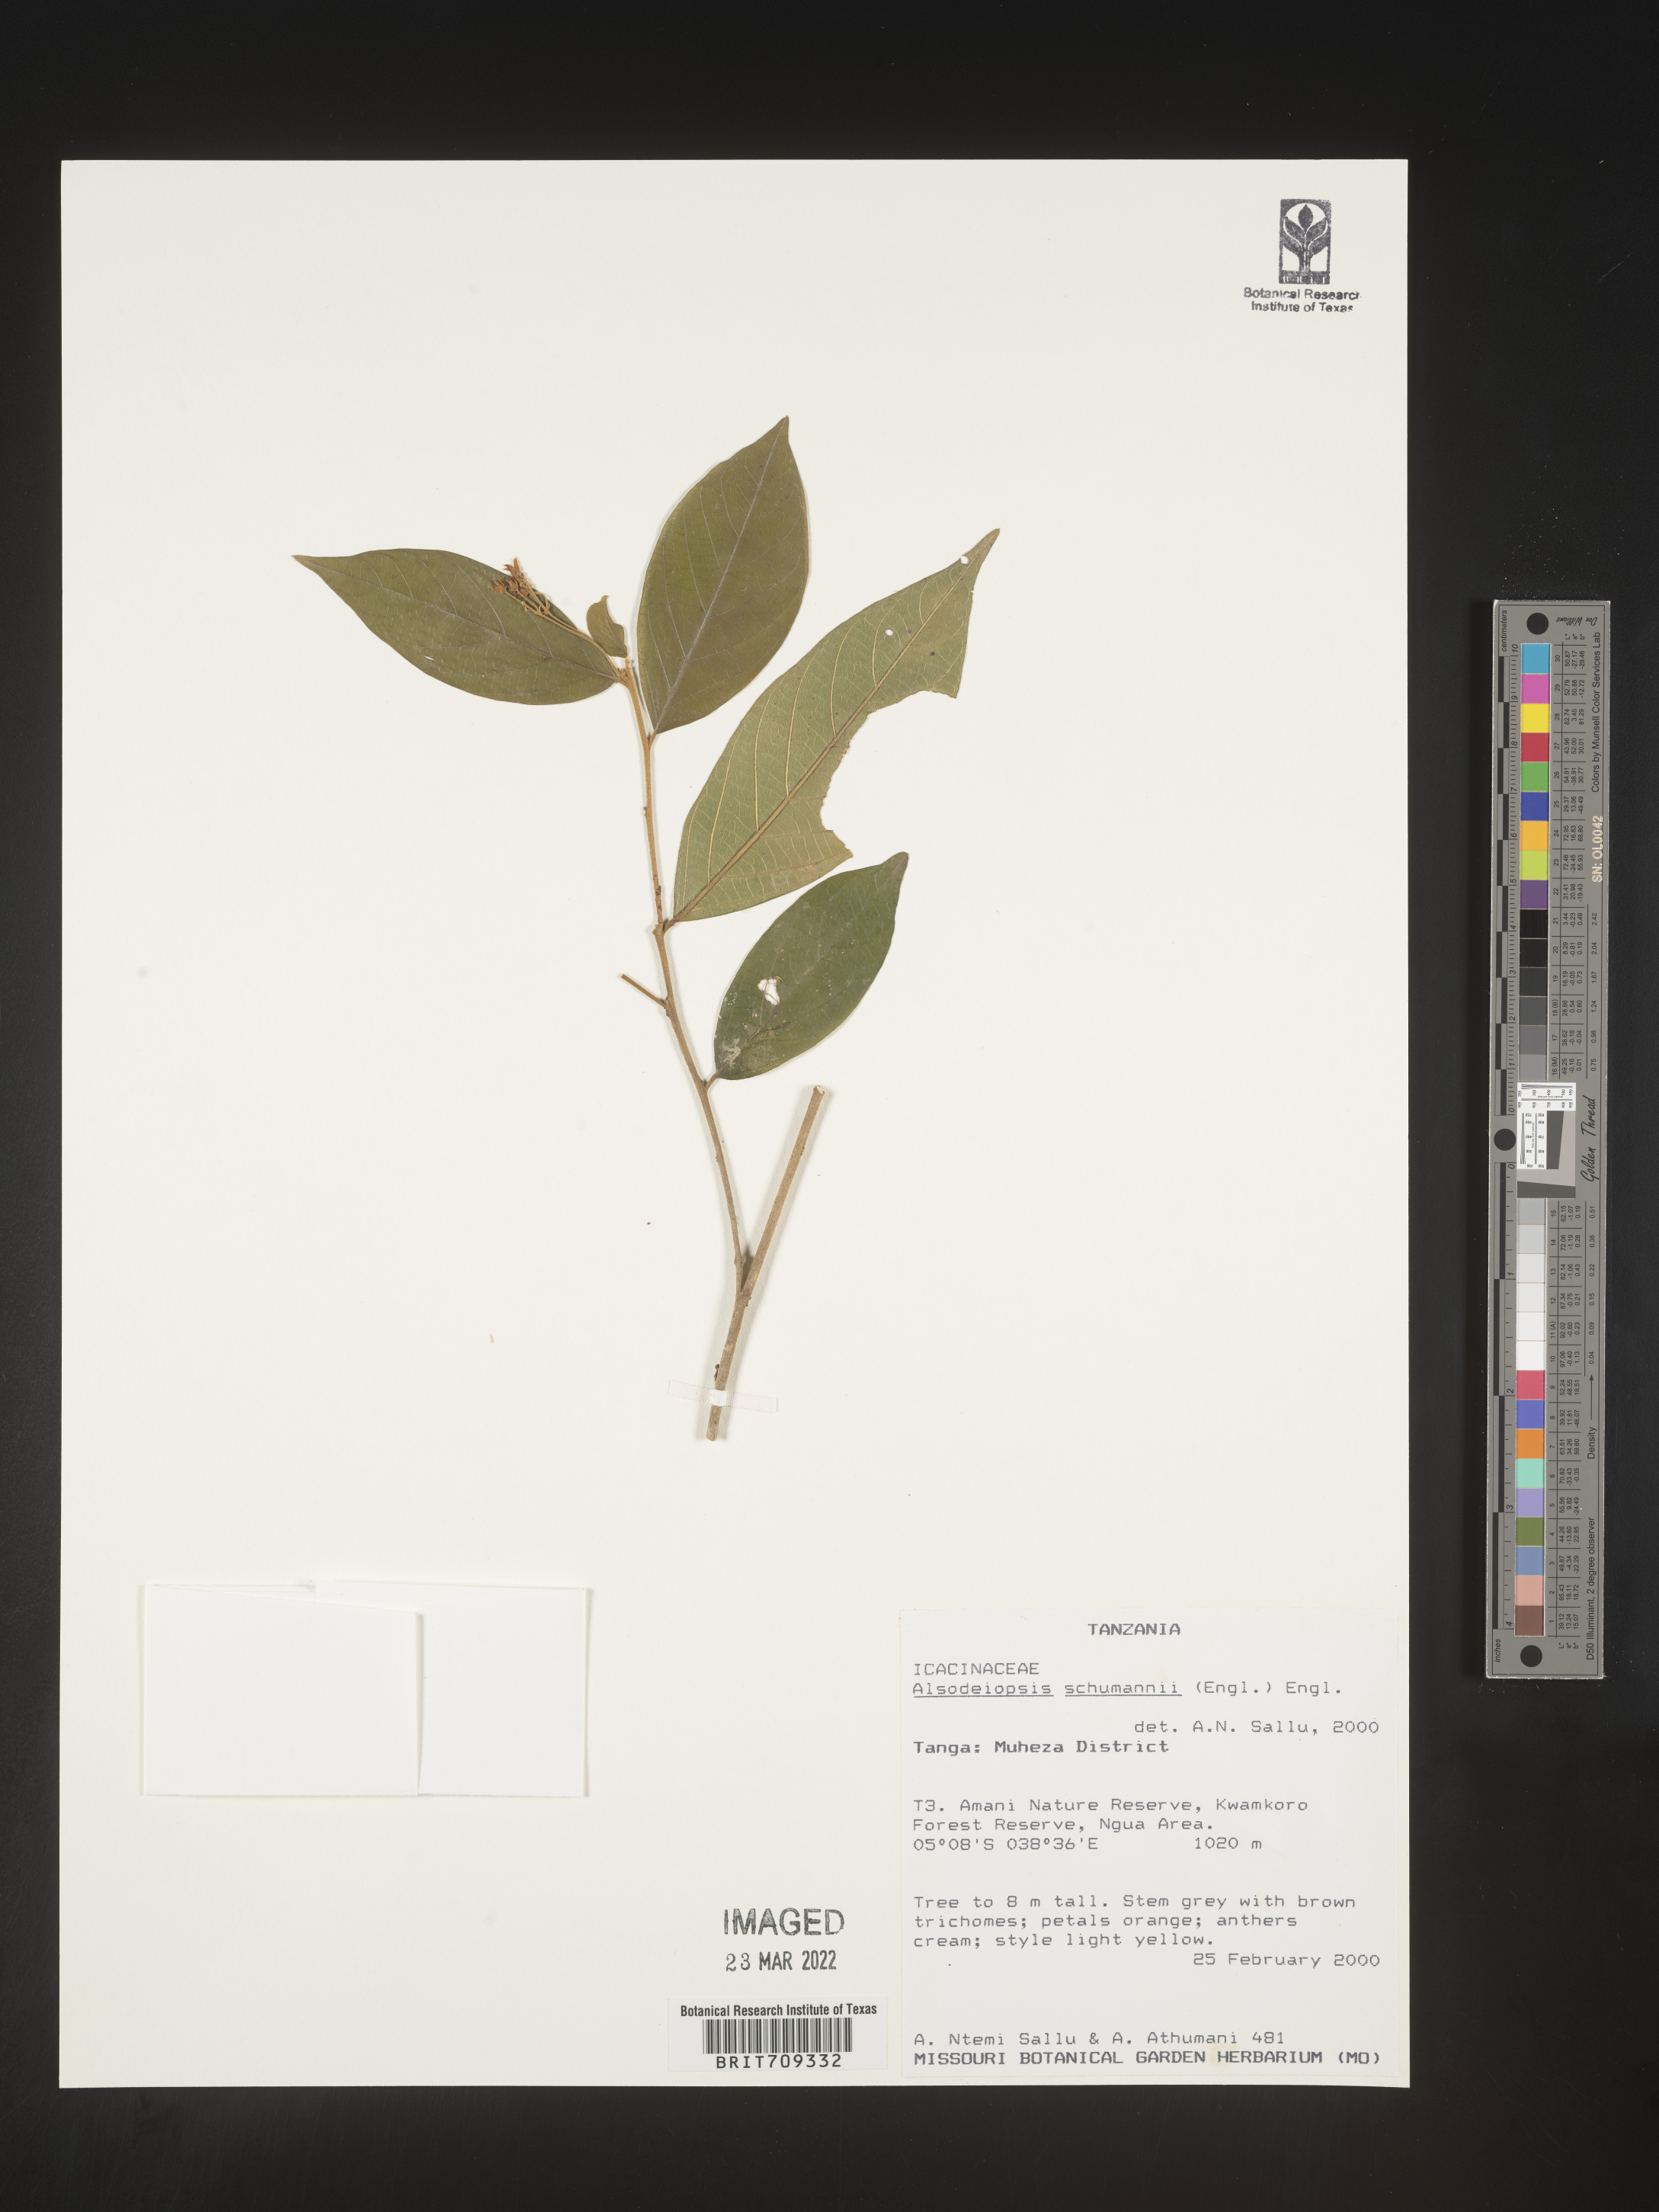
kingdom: Plantae
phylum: Tracheophyta
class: Magnoliopsida
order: Icacinales
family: Icacinaceae
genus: Alsodeiopsis
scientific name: Alsodeiopsis
